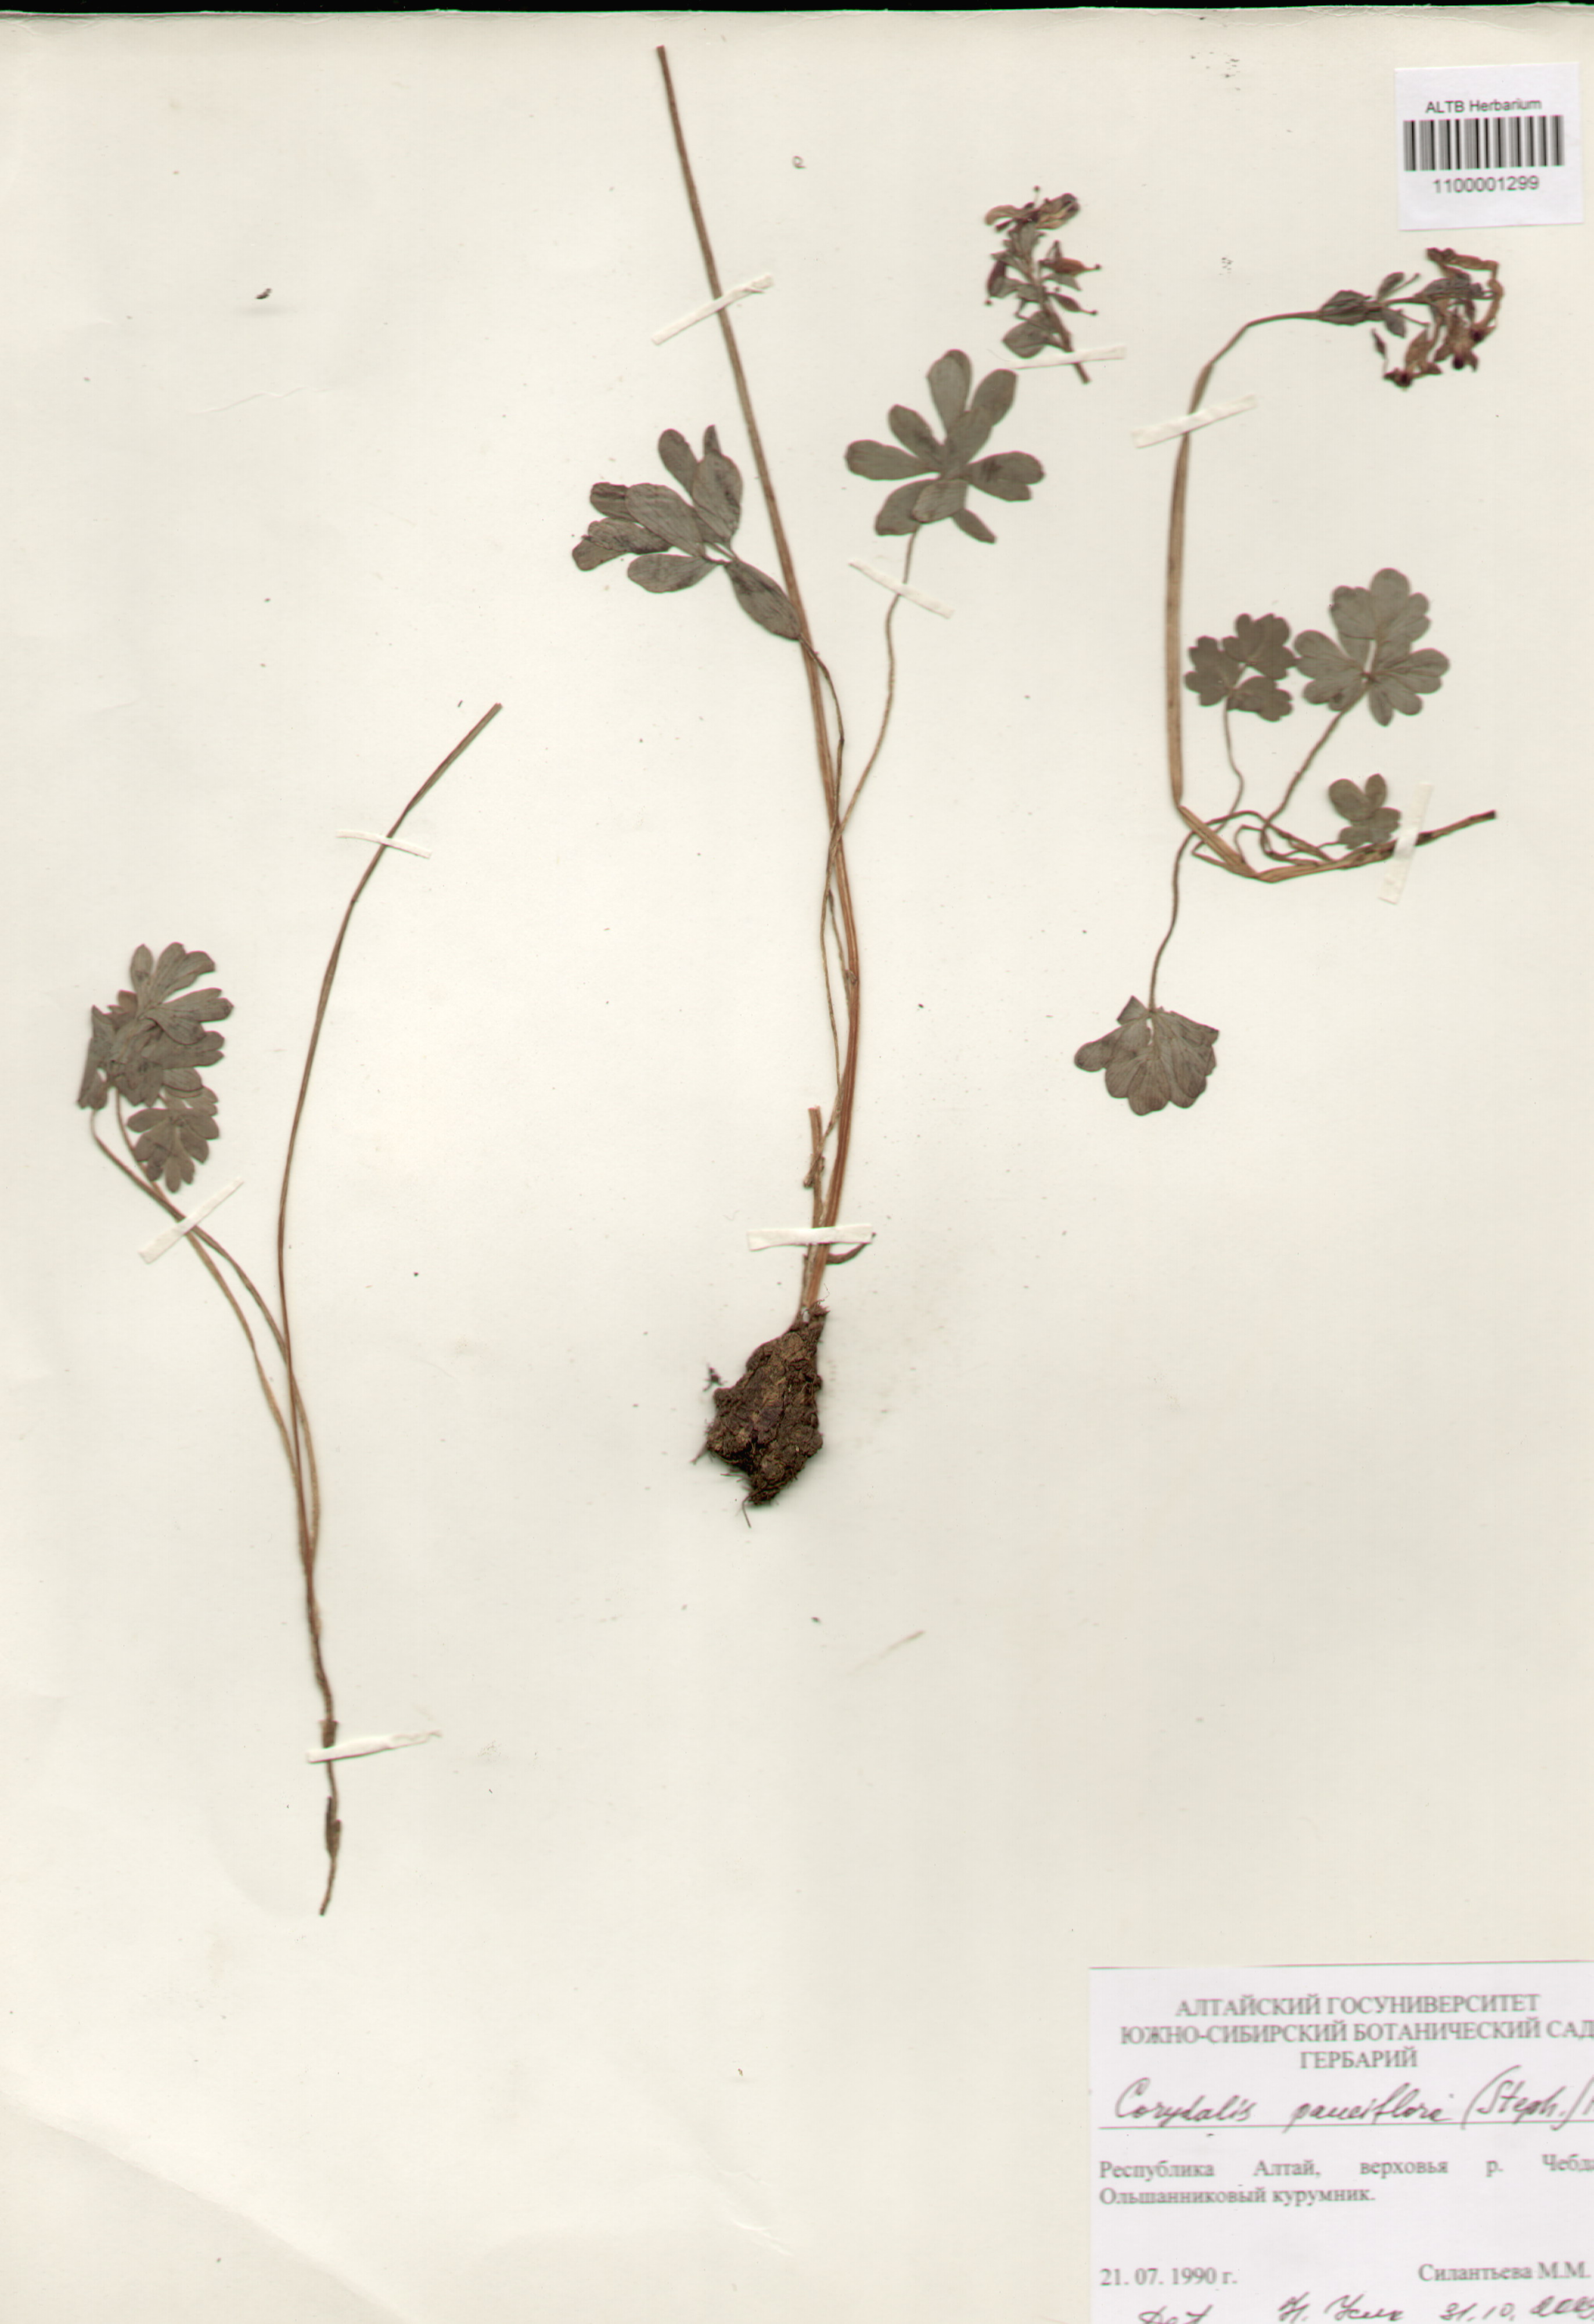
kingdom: Plantae
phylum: Tracheophyta
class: Magnoliopsida
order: Ranunculales
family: Papaveraceae
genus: Corydalis
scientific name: Corydalis pauciflora
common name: Blue corydalis
